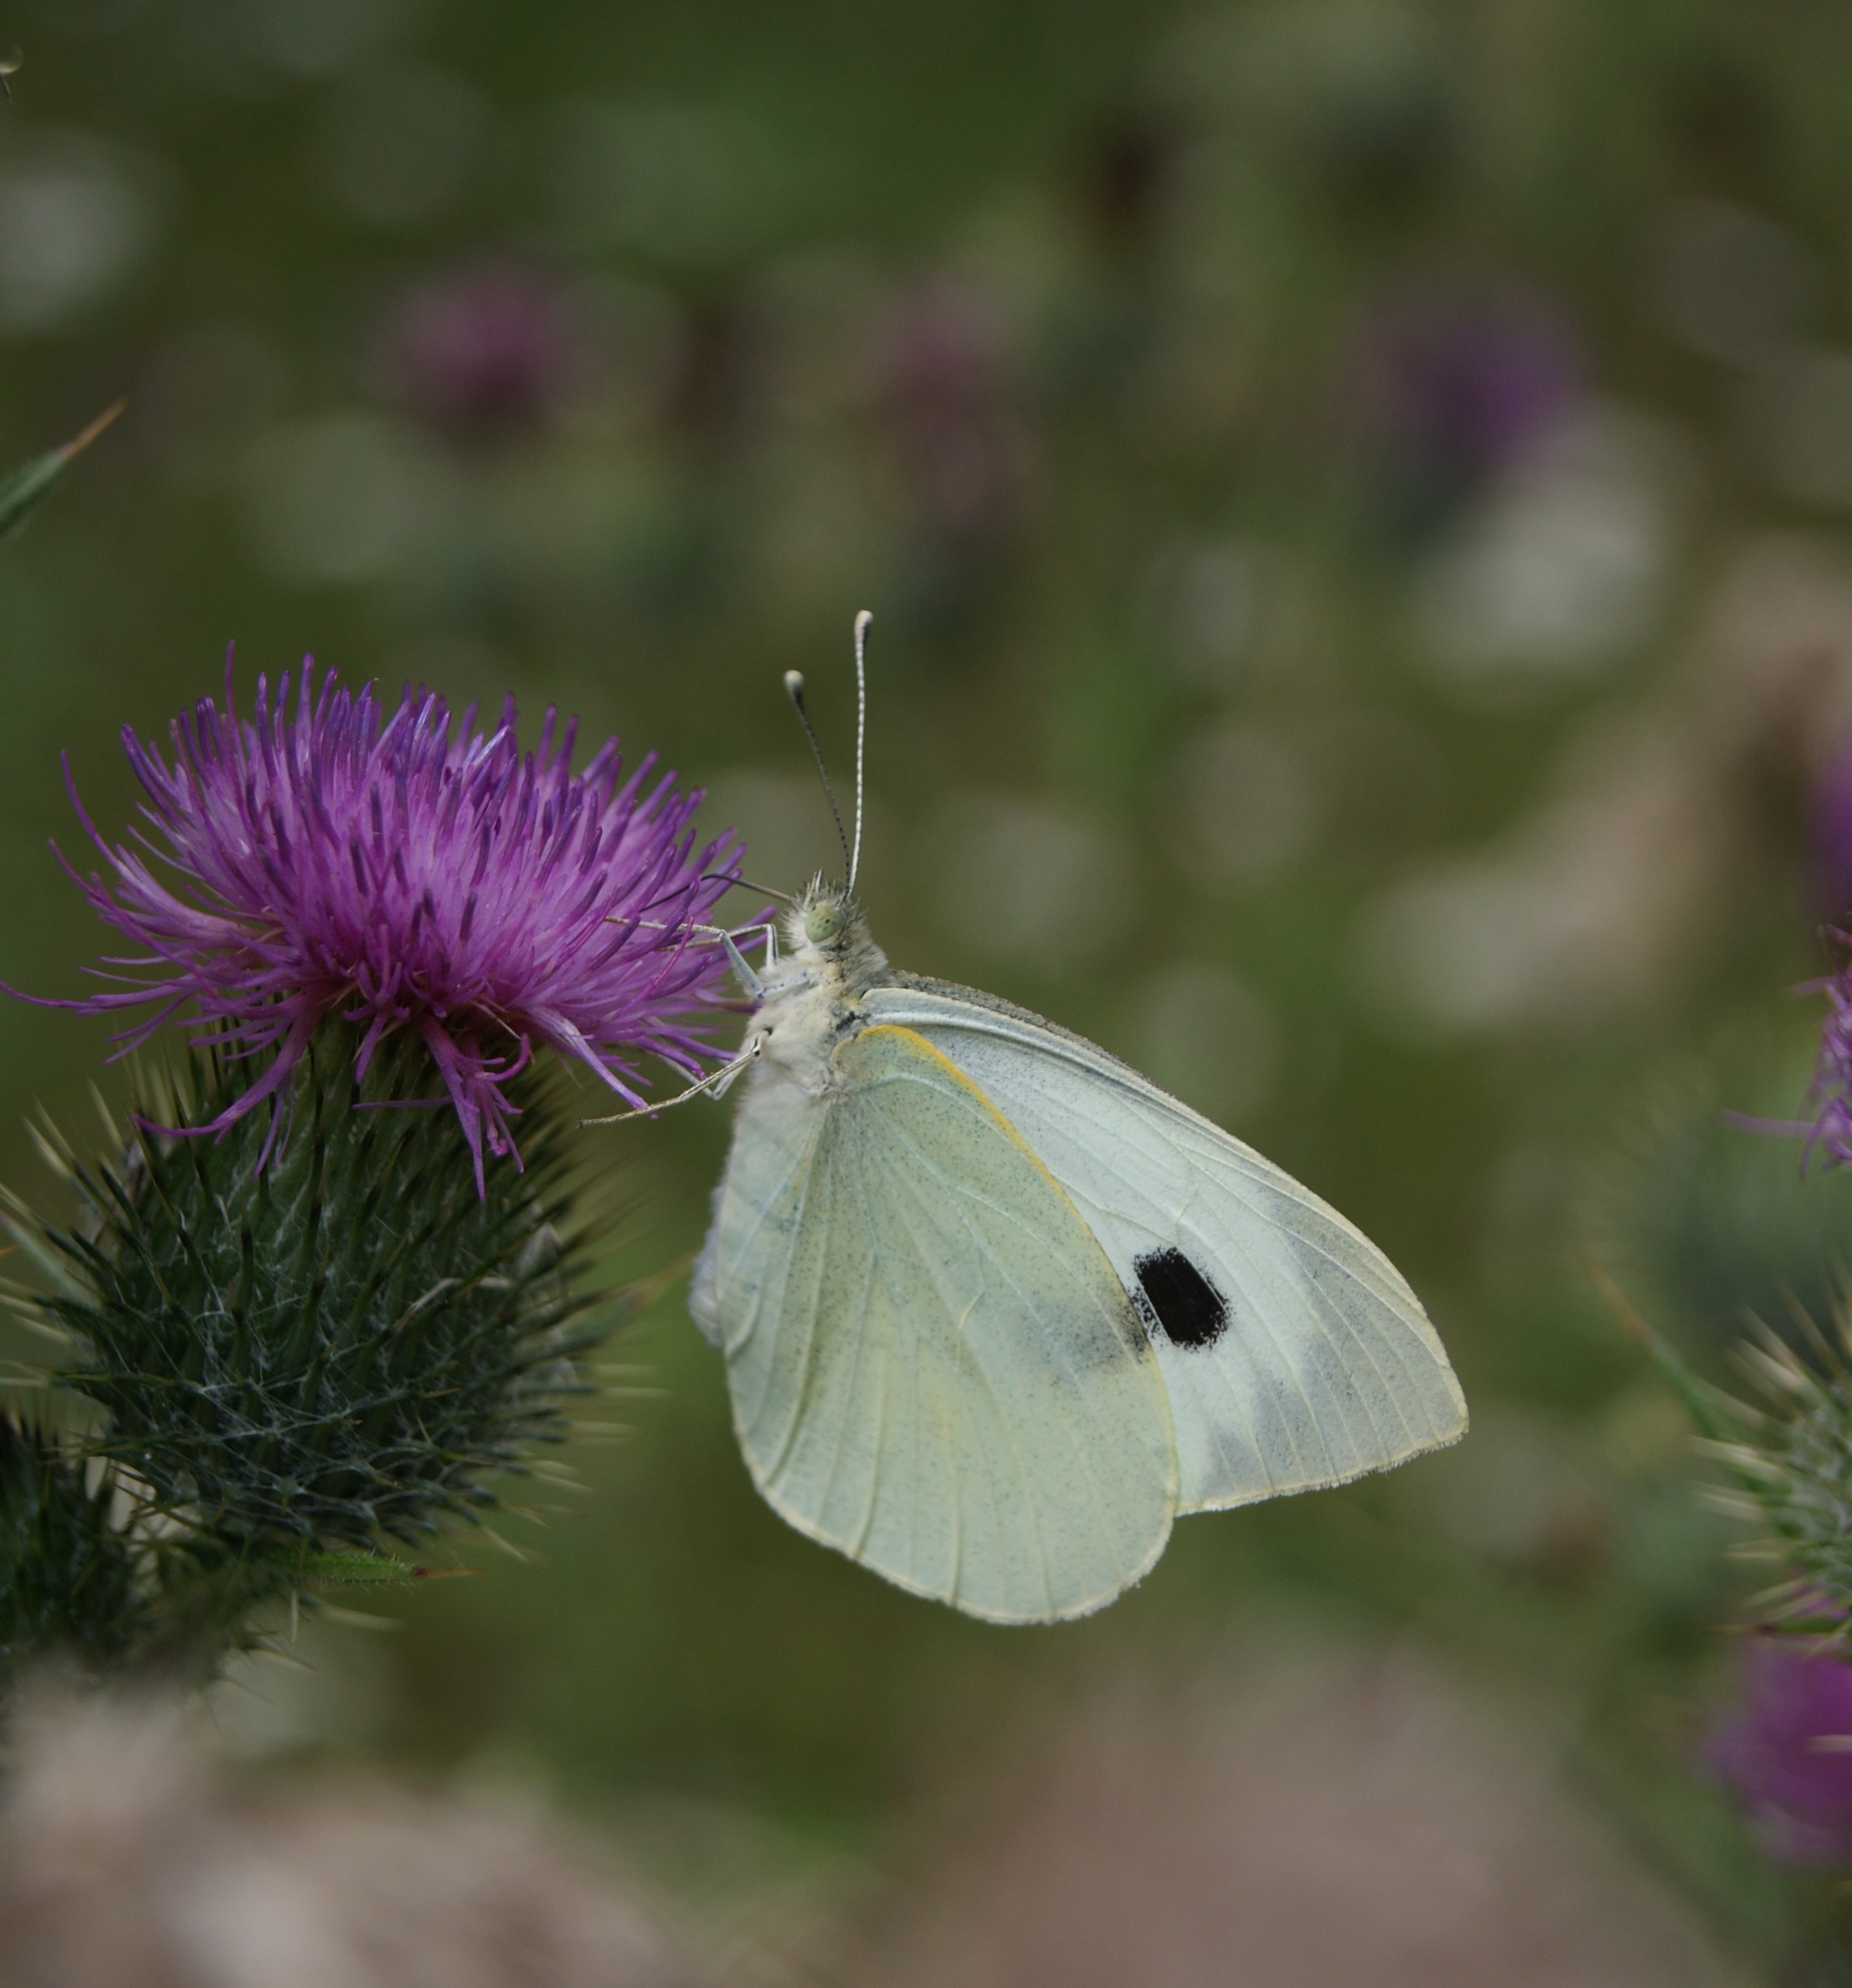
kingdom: Animalia
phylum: Arthropoda
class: Insecta
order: Lepidoptera
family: Pieridae
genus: Pieris
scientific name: Pieris brassicae
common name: Stor kålsommerfugl
